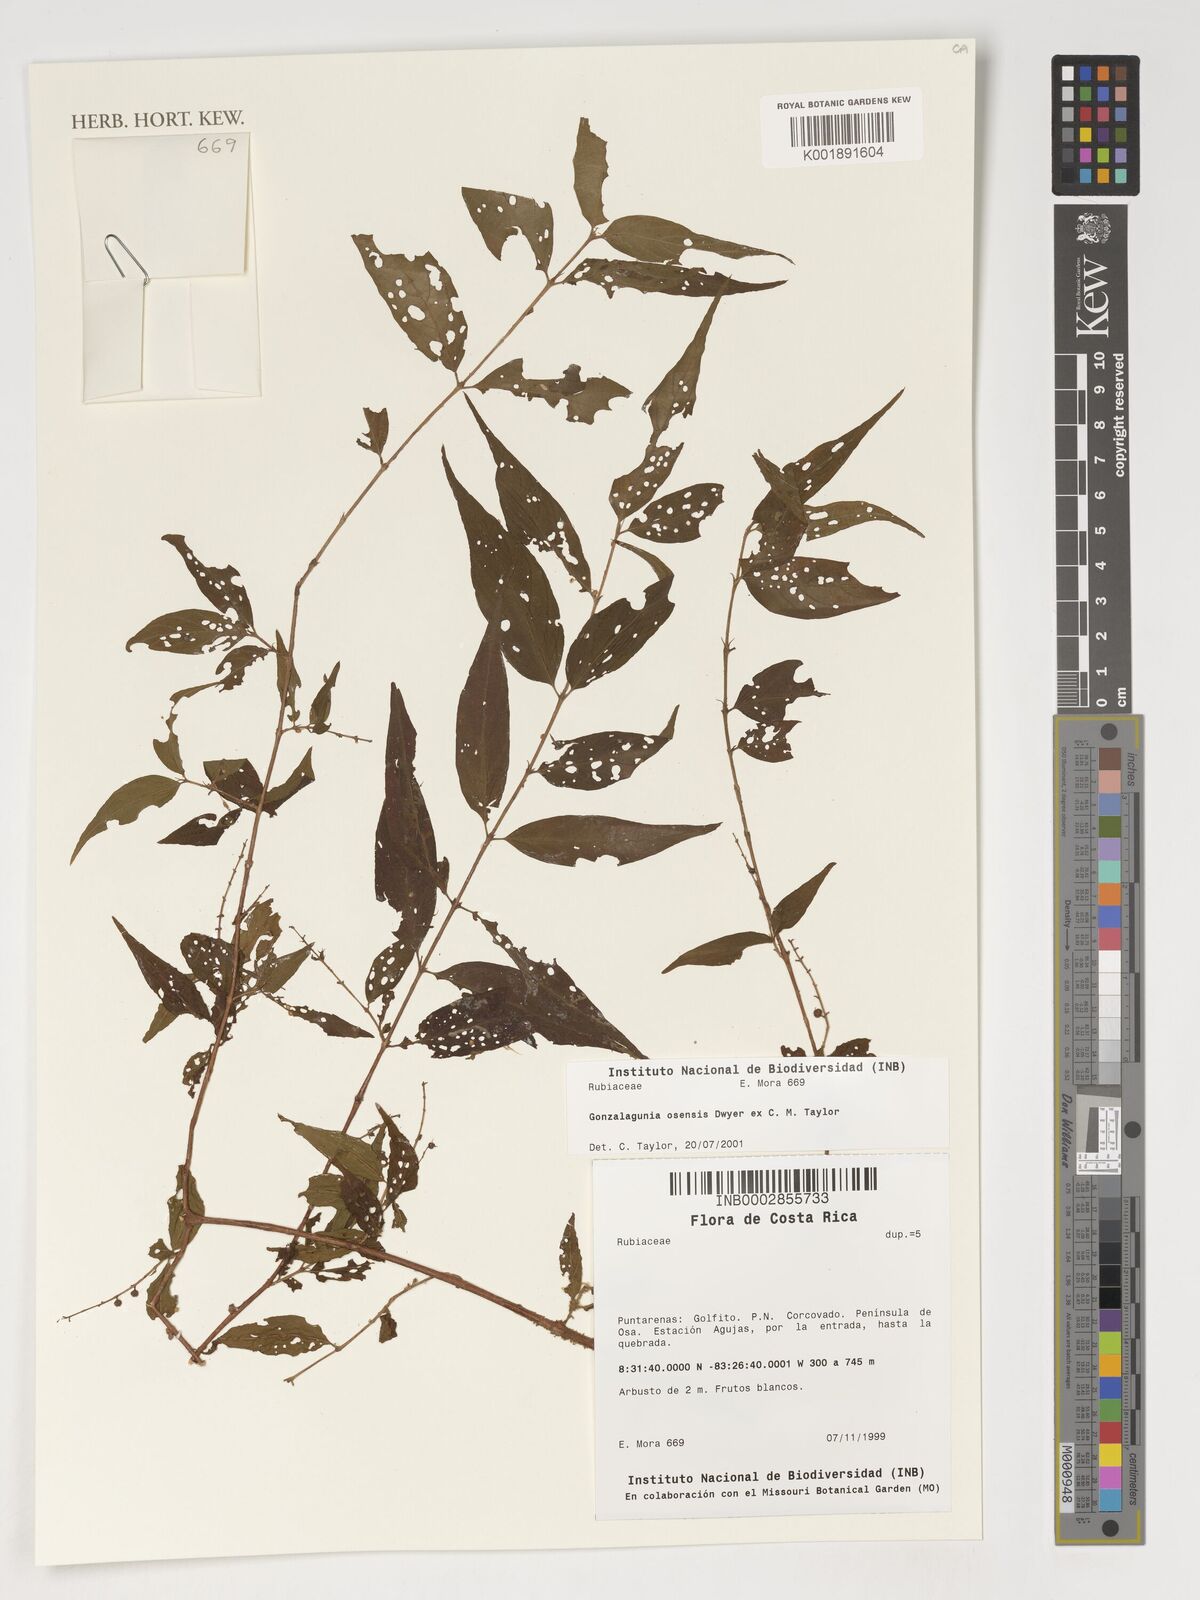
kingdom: Plantae
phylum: Tracheophyta
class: Magnoliopsida
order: Gentianales
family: Rubiaceae
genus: Gonzalagunia
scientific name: Gonzalagunia osaensis
